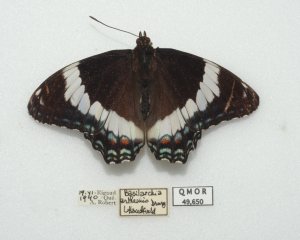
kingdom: Animalia
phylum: Arthropoda
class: Insecta
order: Lepidoptera
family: Nymphalidae
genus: Limenitis
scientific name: Limenitis arthemis
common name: Red-spotted Admiral
